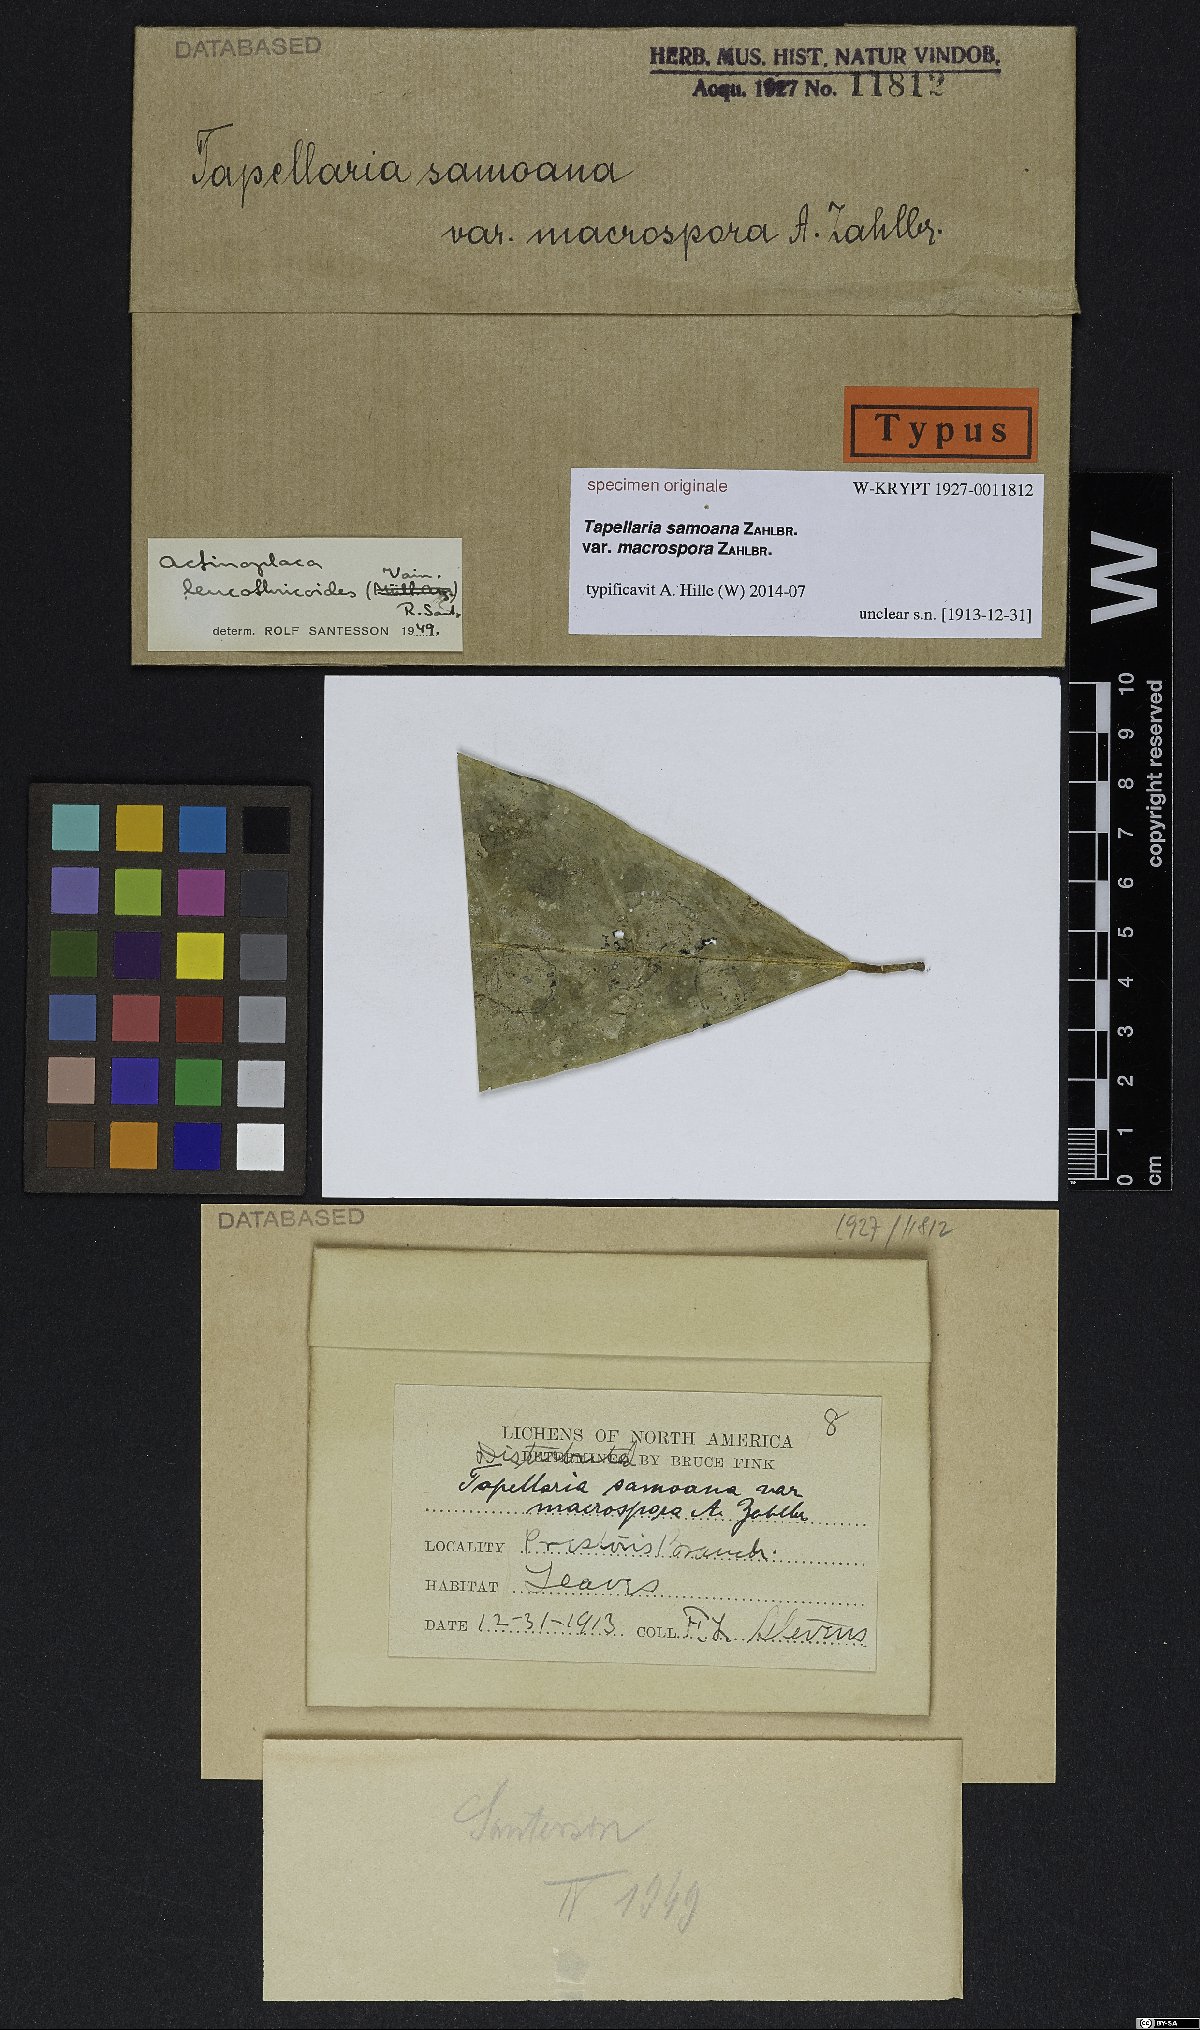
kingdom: Fungi
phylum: Ascomycota
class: Lecanoromycetes
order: Lecanorales
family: Ectolechiaceae
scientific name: Ectolechiaceae
